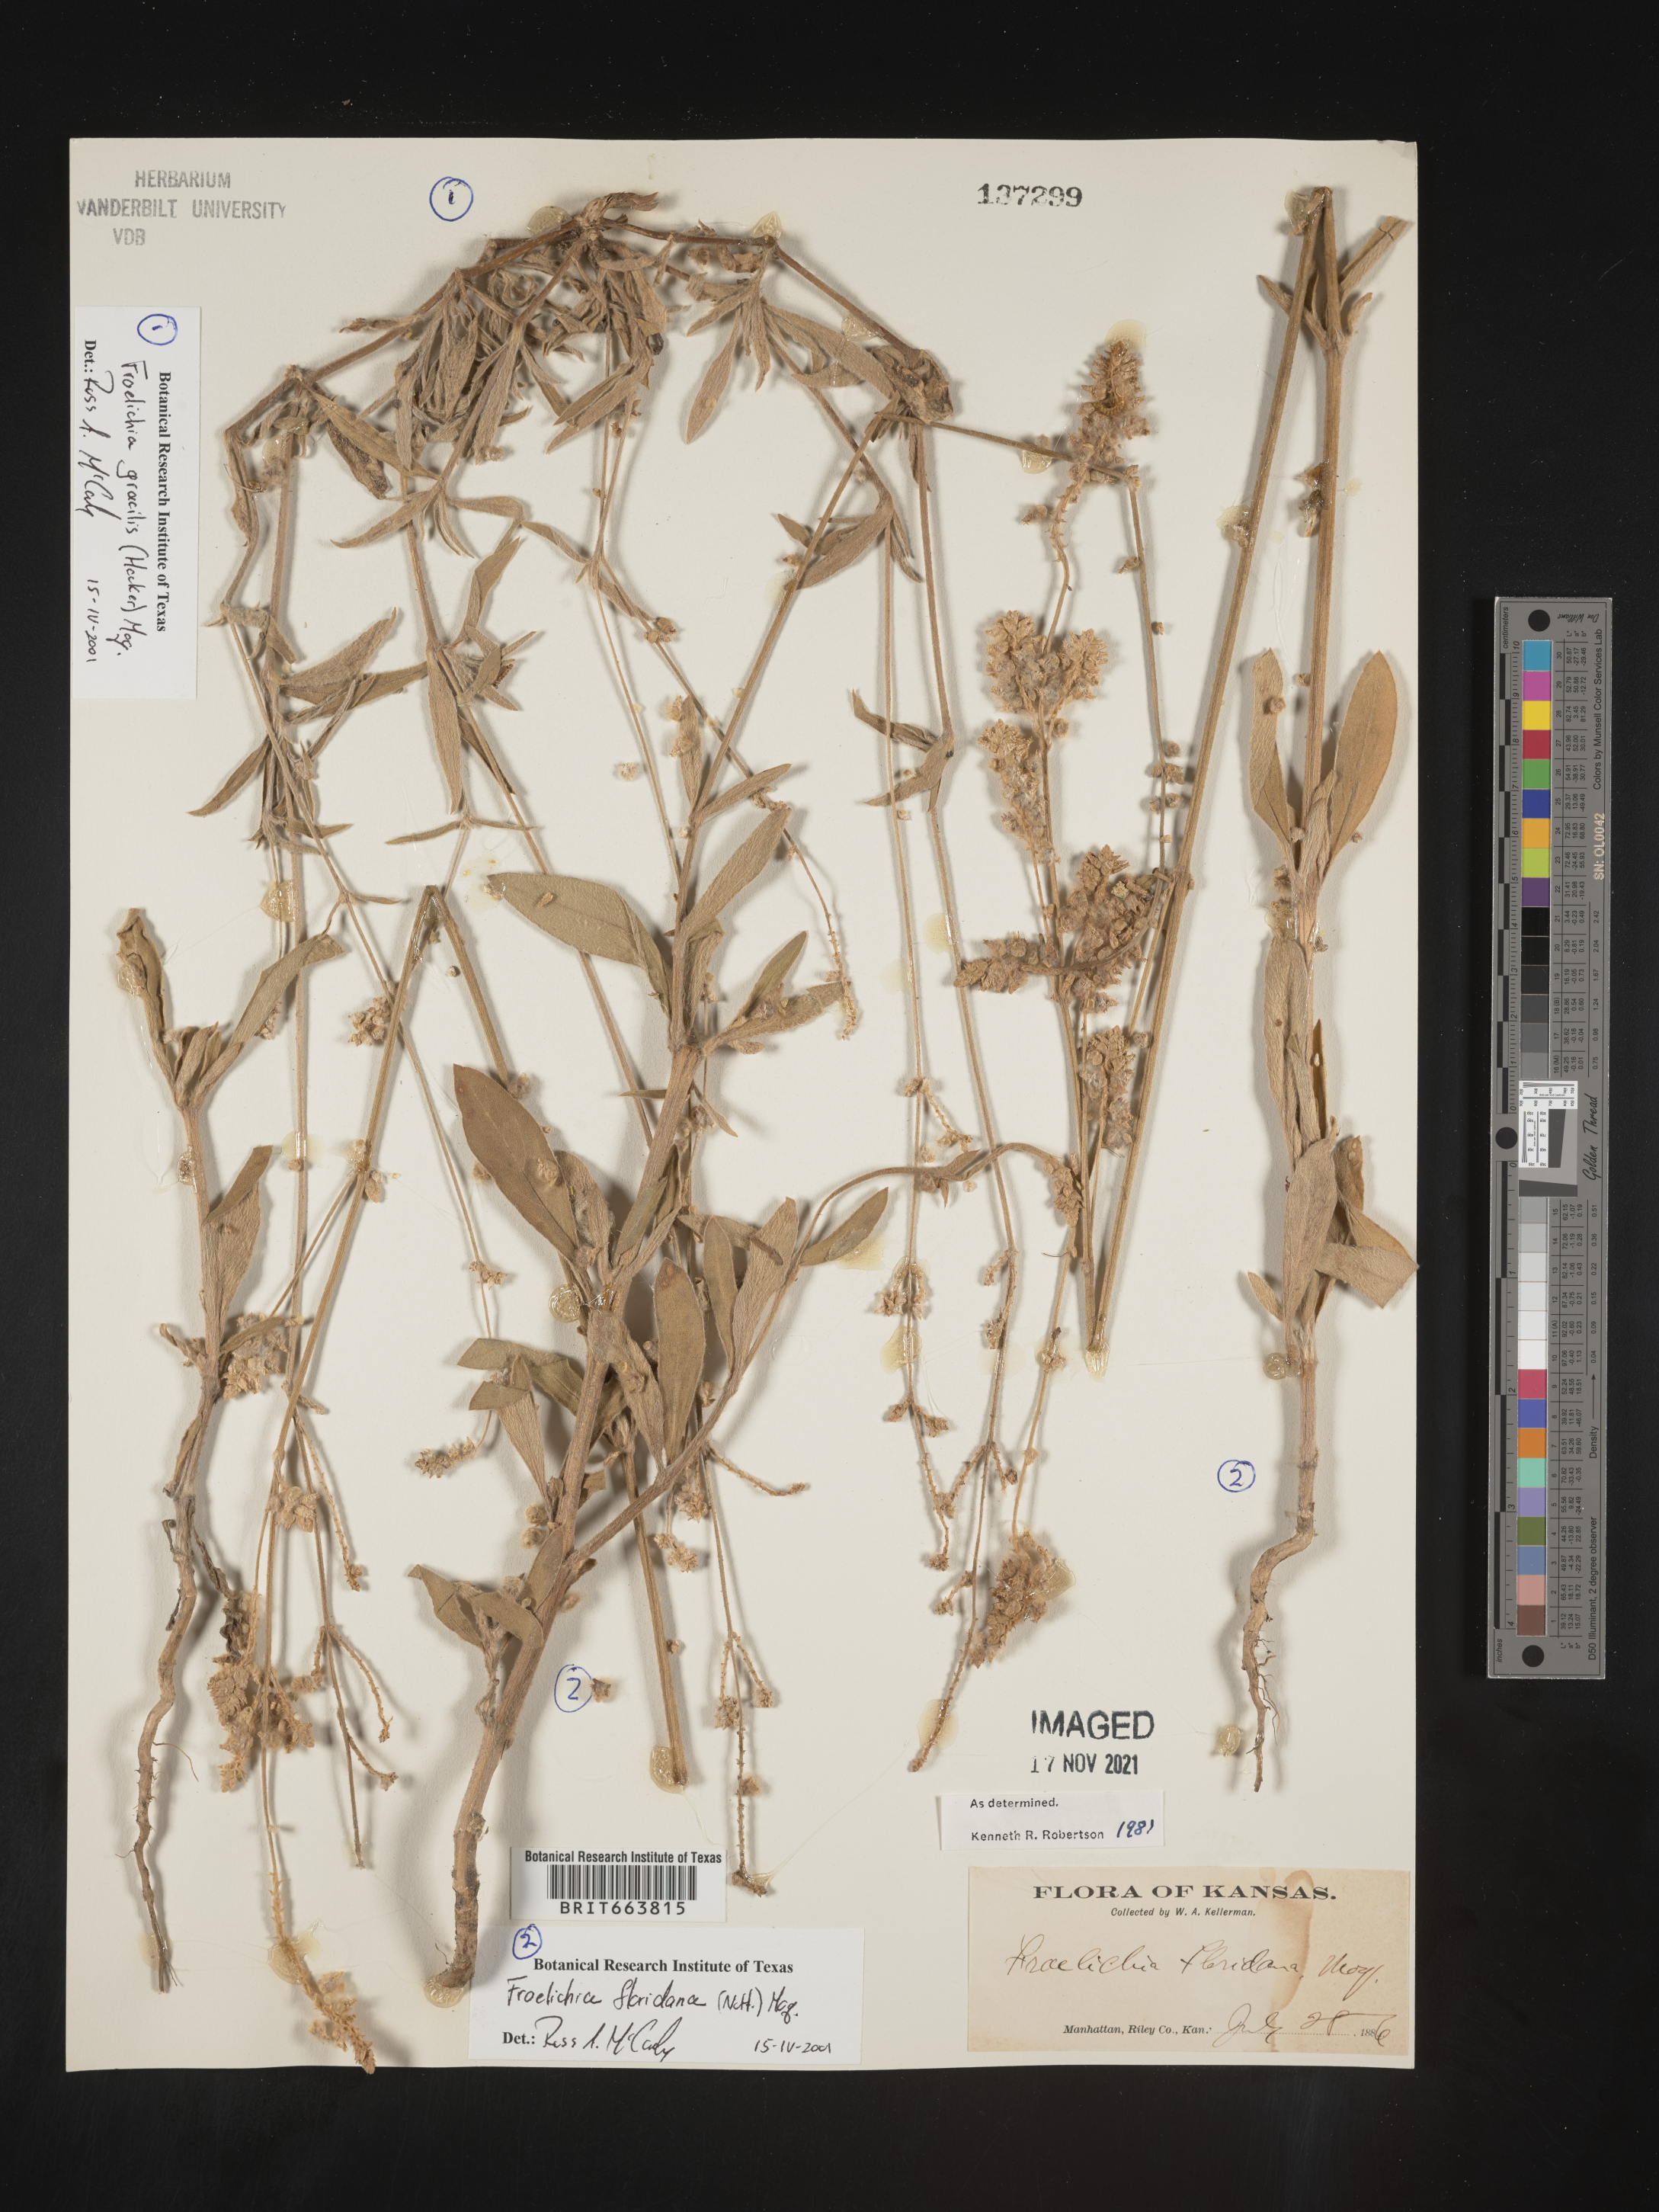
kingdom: Plantae
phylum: Tracheophyta
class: Magnoliopsida
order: Caryophyllales
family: Amaranthaceae
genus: Froelichia
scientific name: Froelichia floridana
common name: Florida snake-cotton
